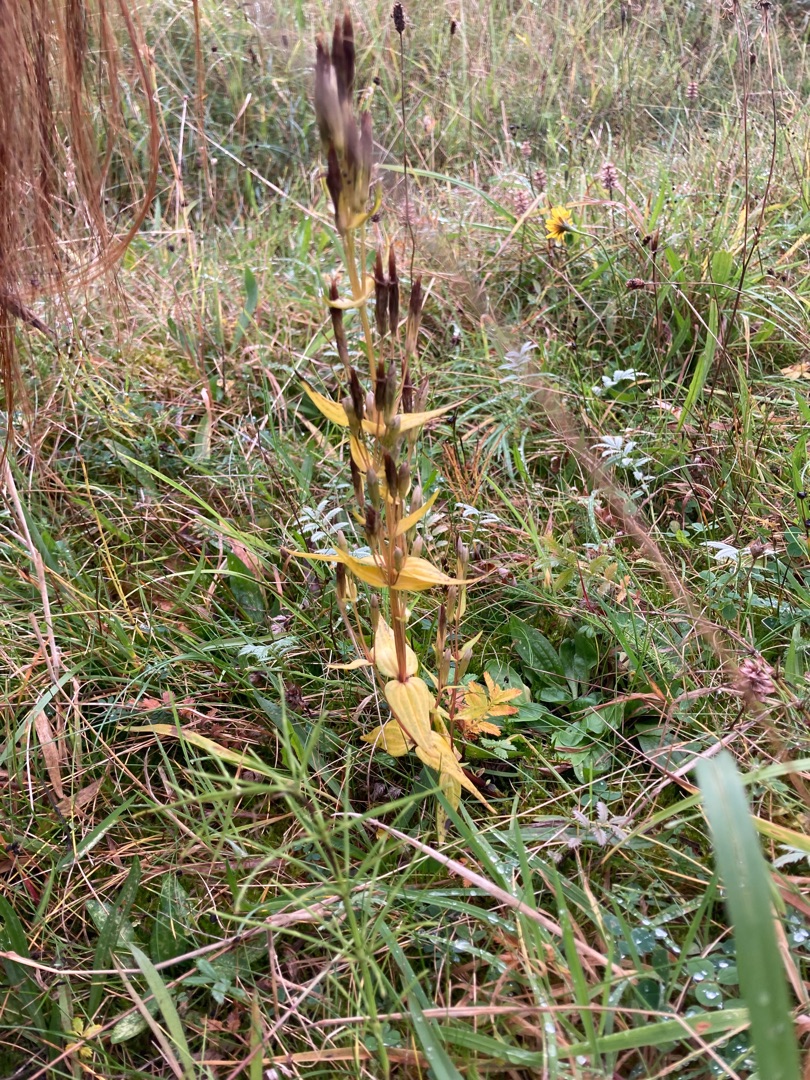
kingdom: Plantae
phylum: Tracheophyta
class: Magnoliopsida
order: Gentianales
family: Gentianaceae
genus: Gentianella
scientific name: Gentianella amarella
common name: Smalbægret ensian
